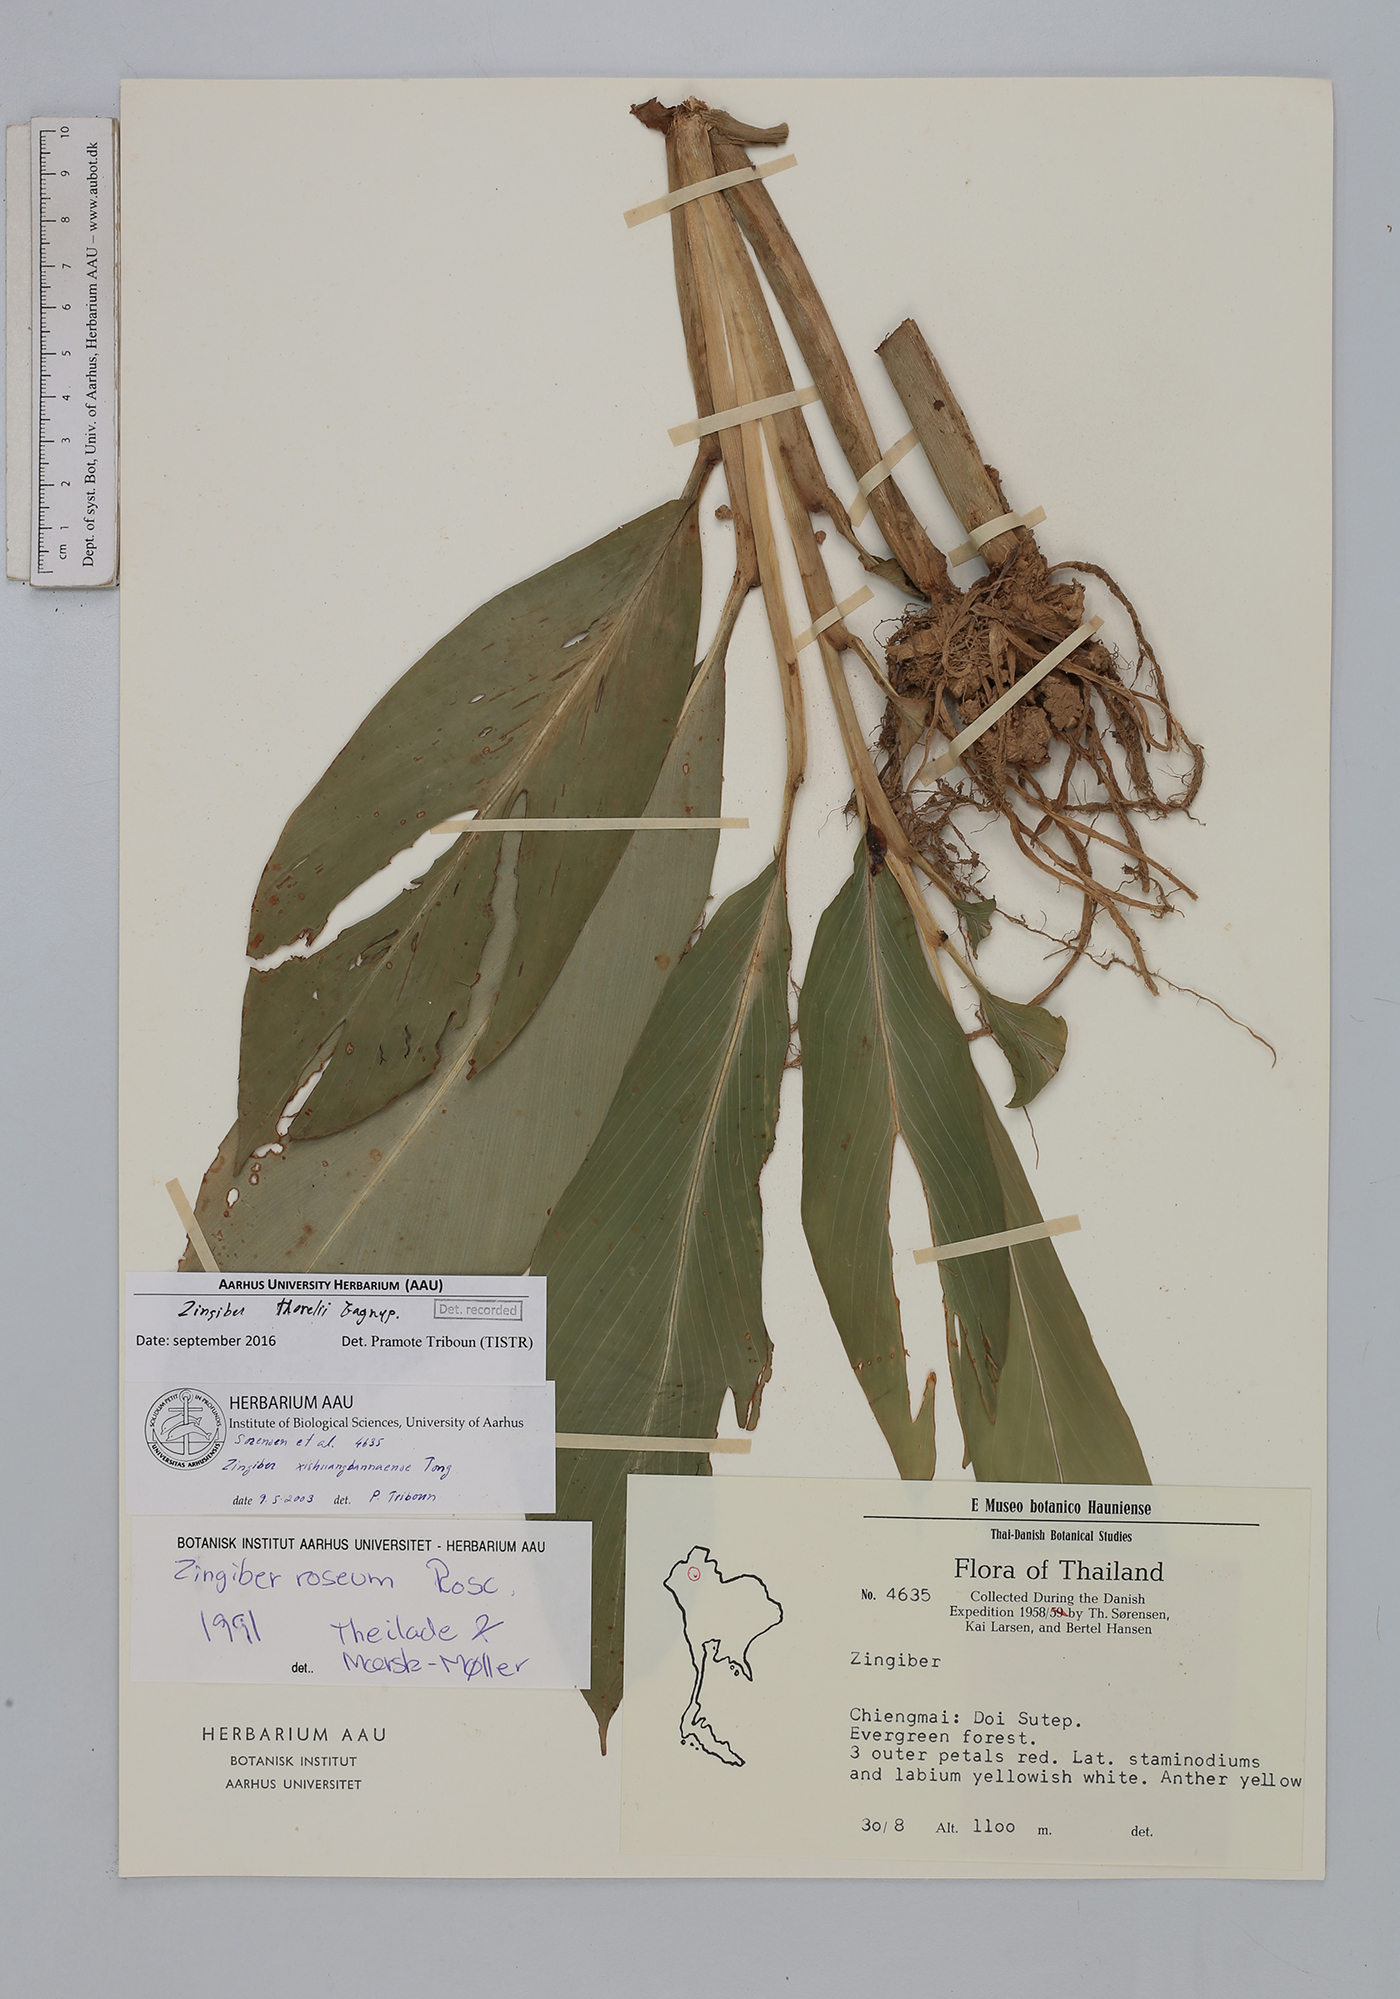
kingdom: Plantae
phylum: Tracheophyta
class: Liliopsida
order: Zingiberales
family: Zingiberaceae
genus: Zingiber
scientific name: Zingiber thorelii
